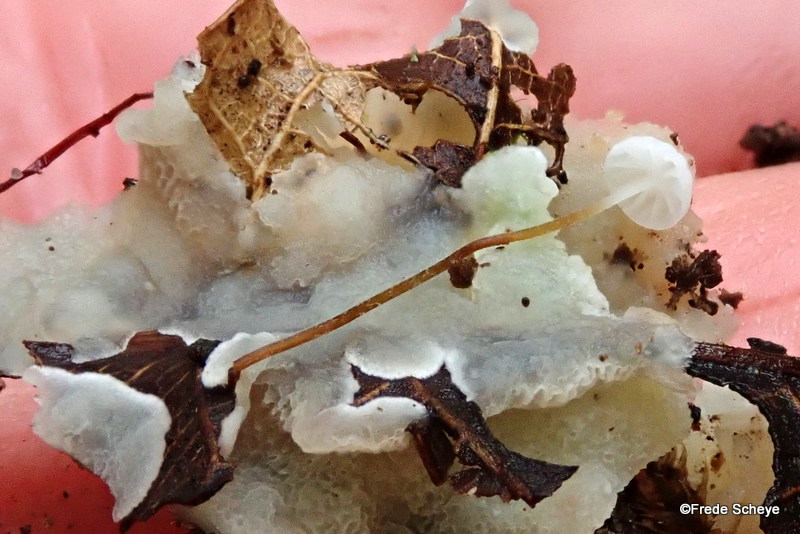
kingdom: Fungi
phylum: Basidiomycota
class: Agaricomycetes
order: Agaricales
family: Physalacriaceae
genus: Rhizomarasmius
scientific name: Rhizomarasmius setosus
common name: bøgeblads-bruskhat
